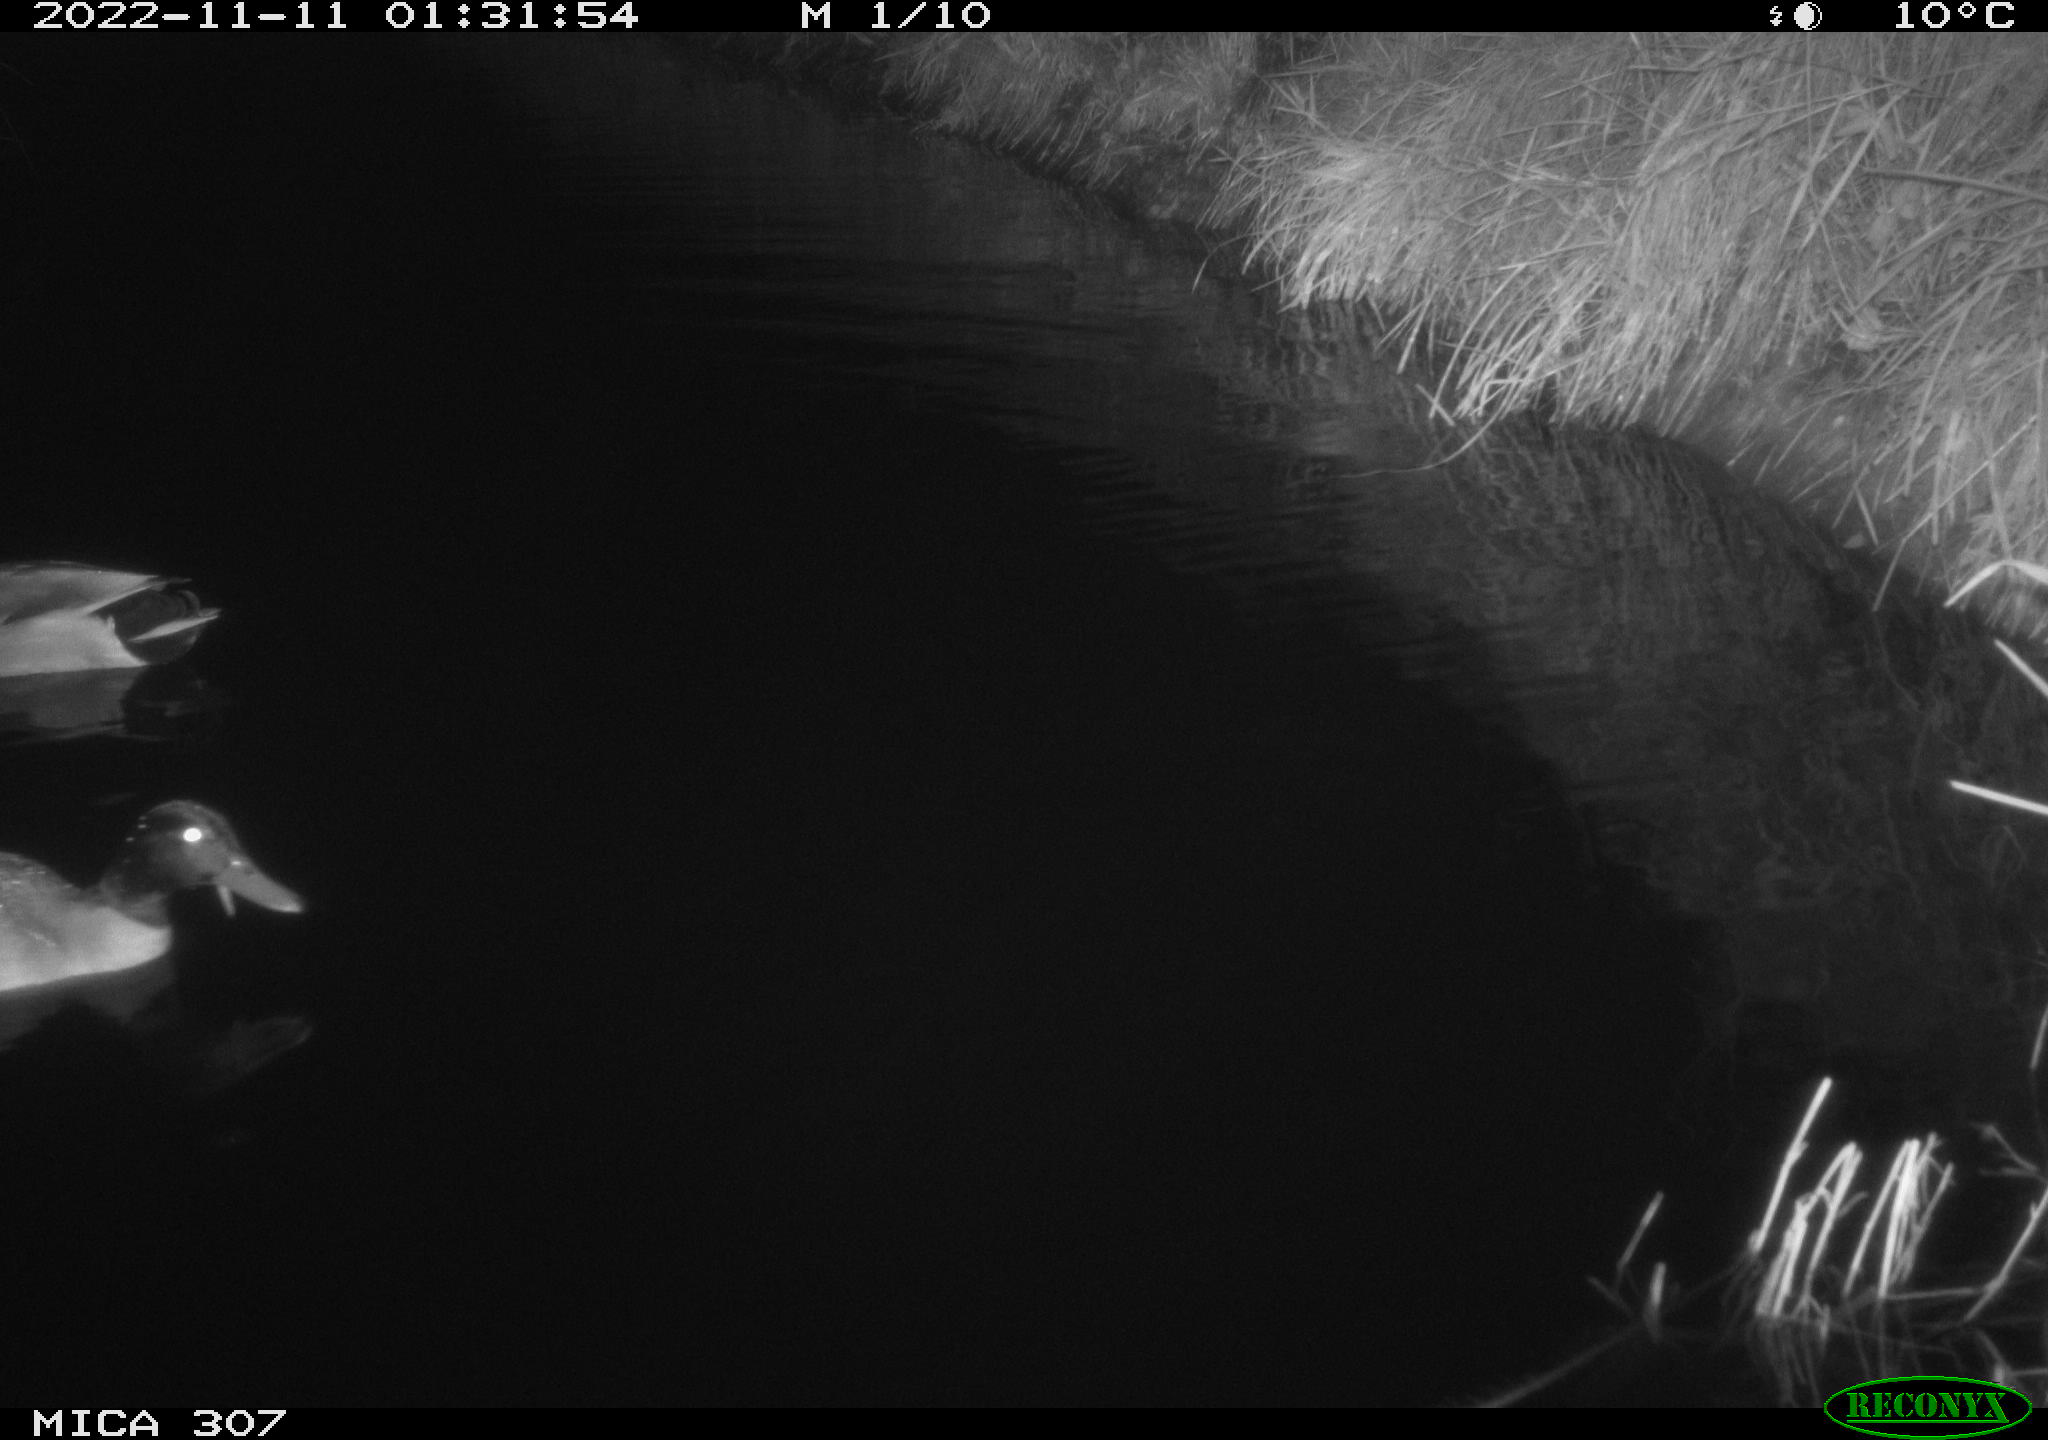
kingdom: Animalia
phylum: Chordata
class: Aves
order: Anseriformes
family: Anatidae
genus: Anas
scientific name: Anas
